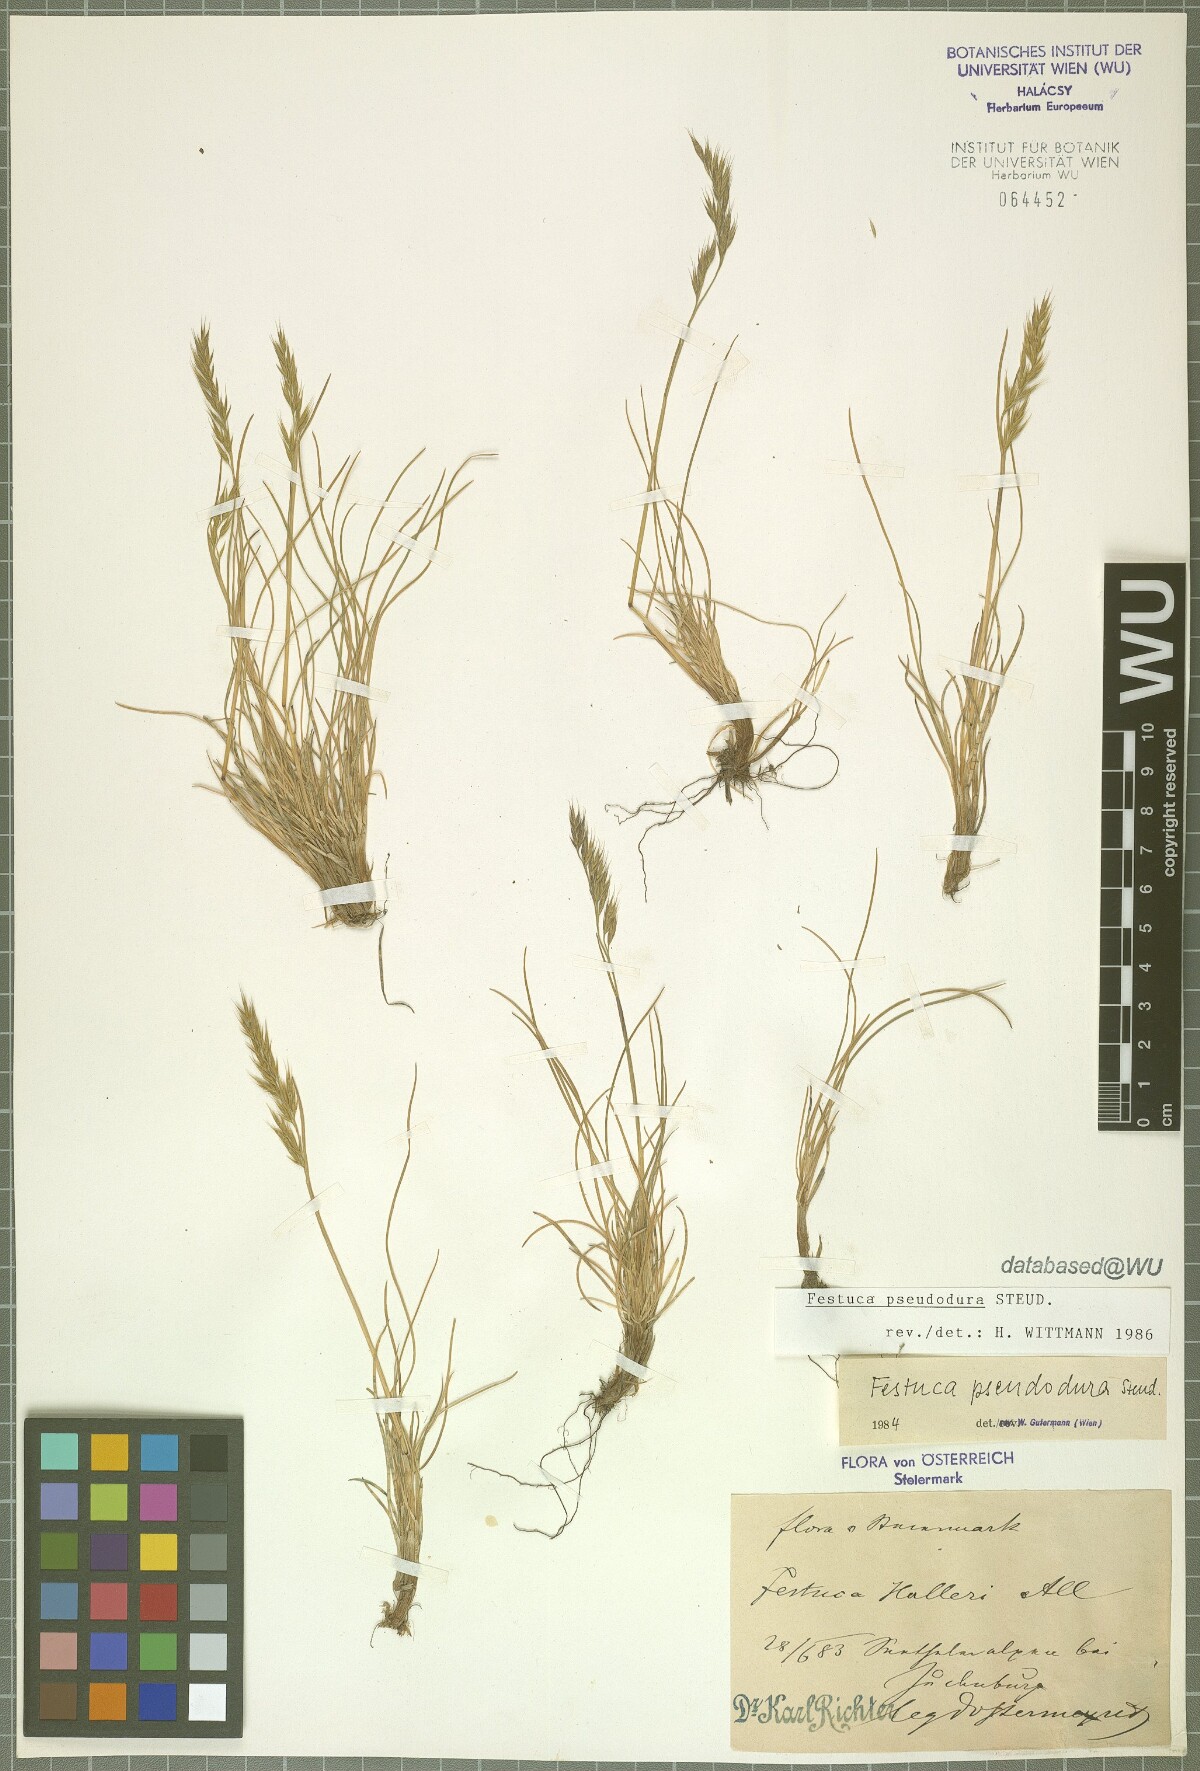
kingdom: Plantae
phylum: Tracheophyta
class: Liliopsida
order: Poales
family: Poaceae
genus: Festuca
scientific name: Festuca pseudodura
